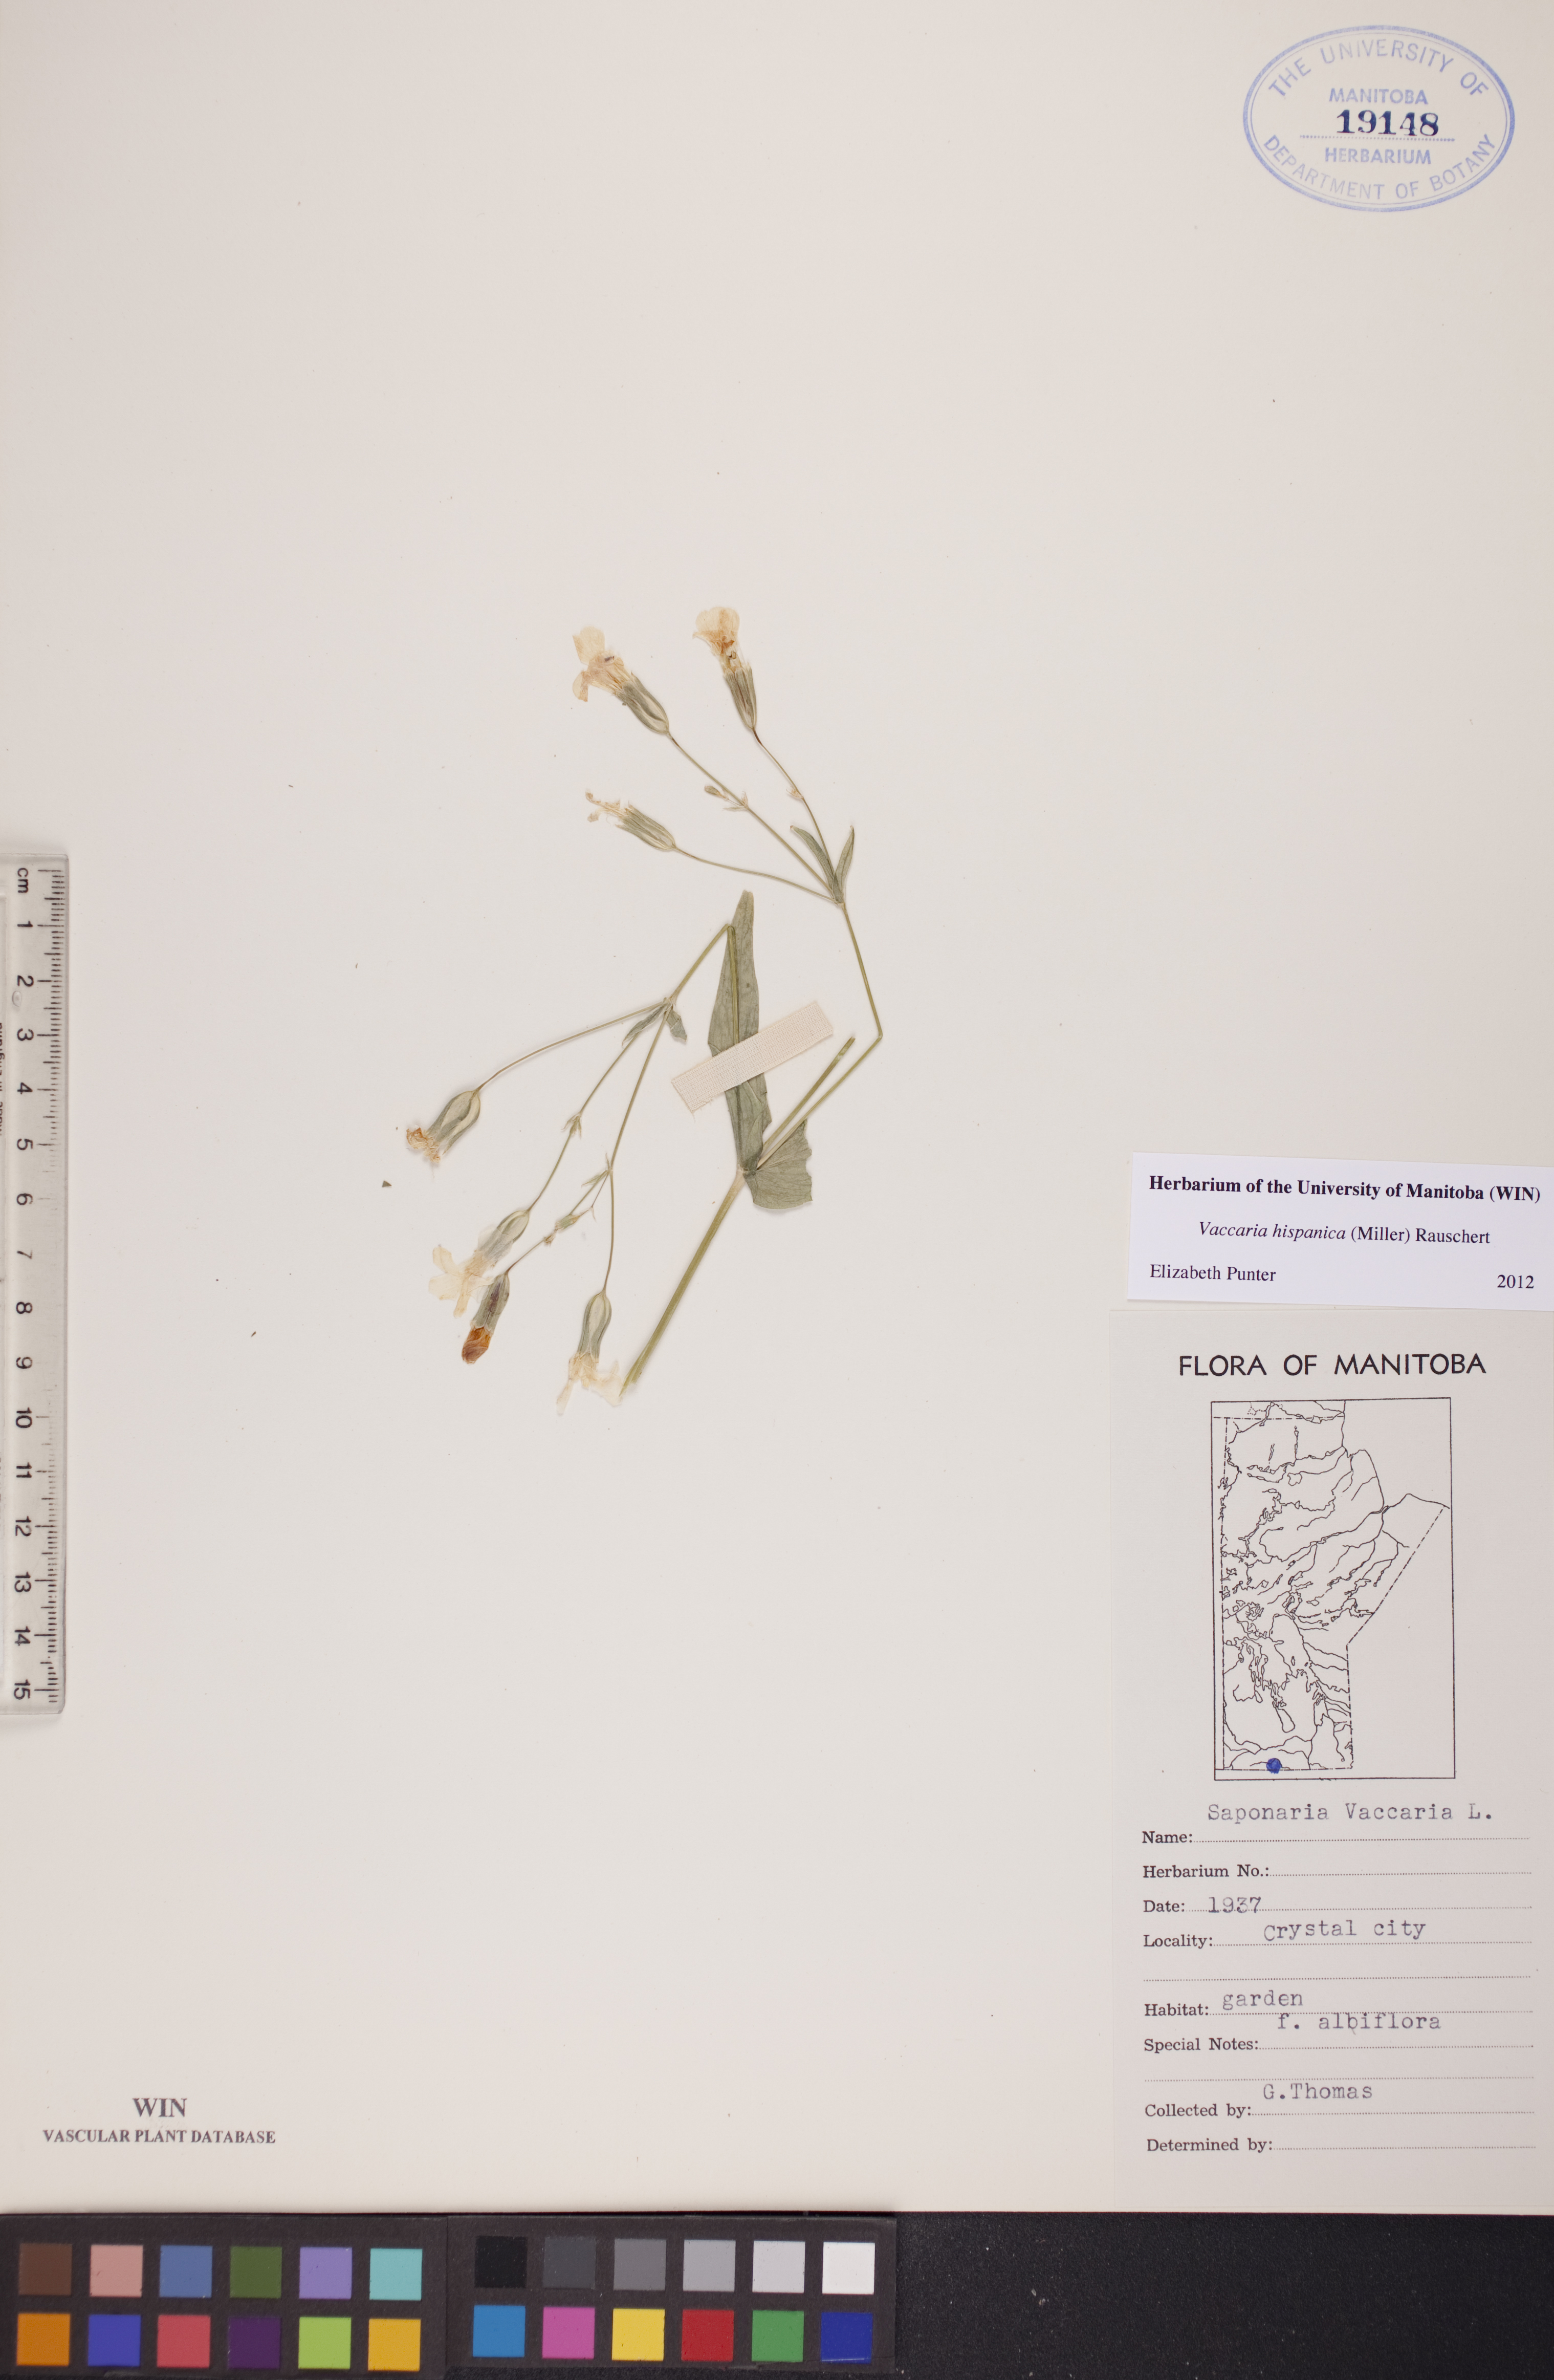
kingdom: Plantae
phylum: Tracheophyta
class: Magnoliopsida
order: Caryophyllales
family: Caryophyllaceae
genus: Gypsophila
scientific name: Gypsophila vaccaria
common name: Cow soapwort
